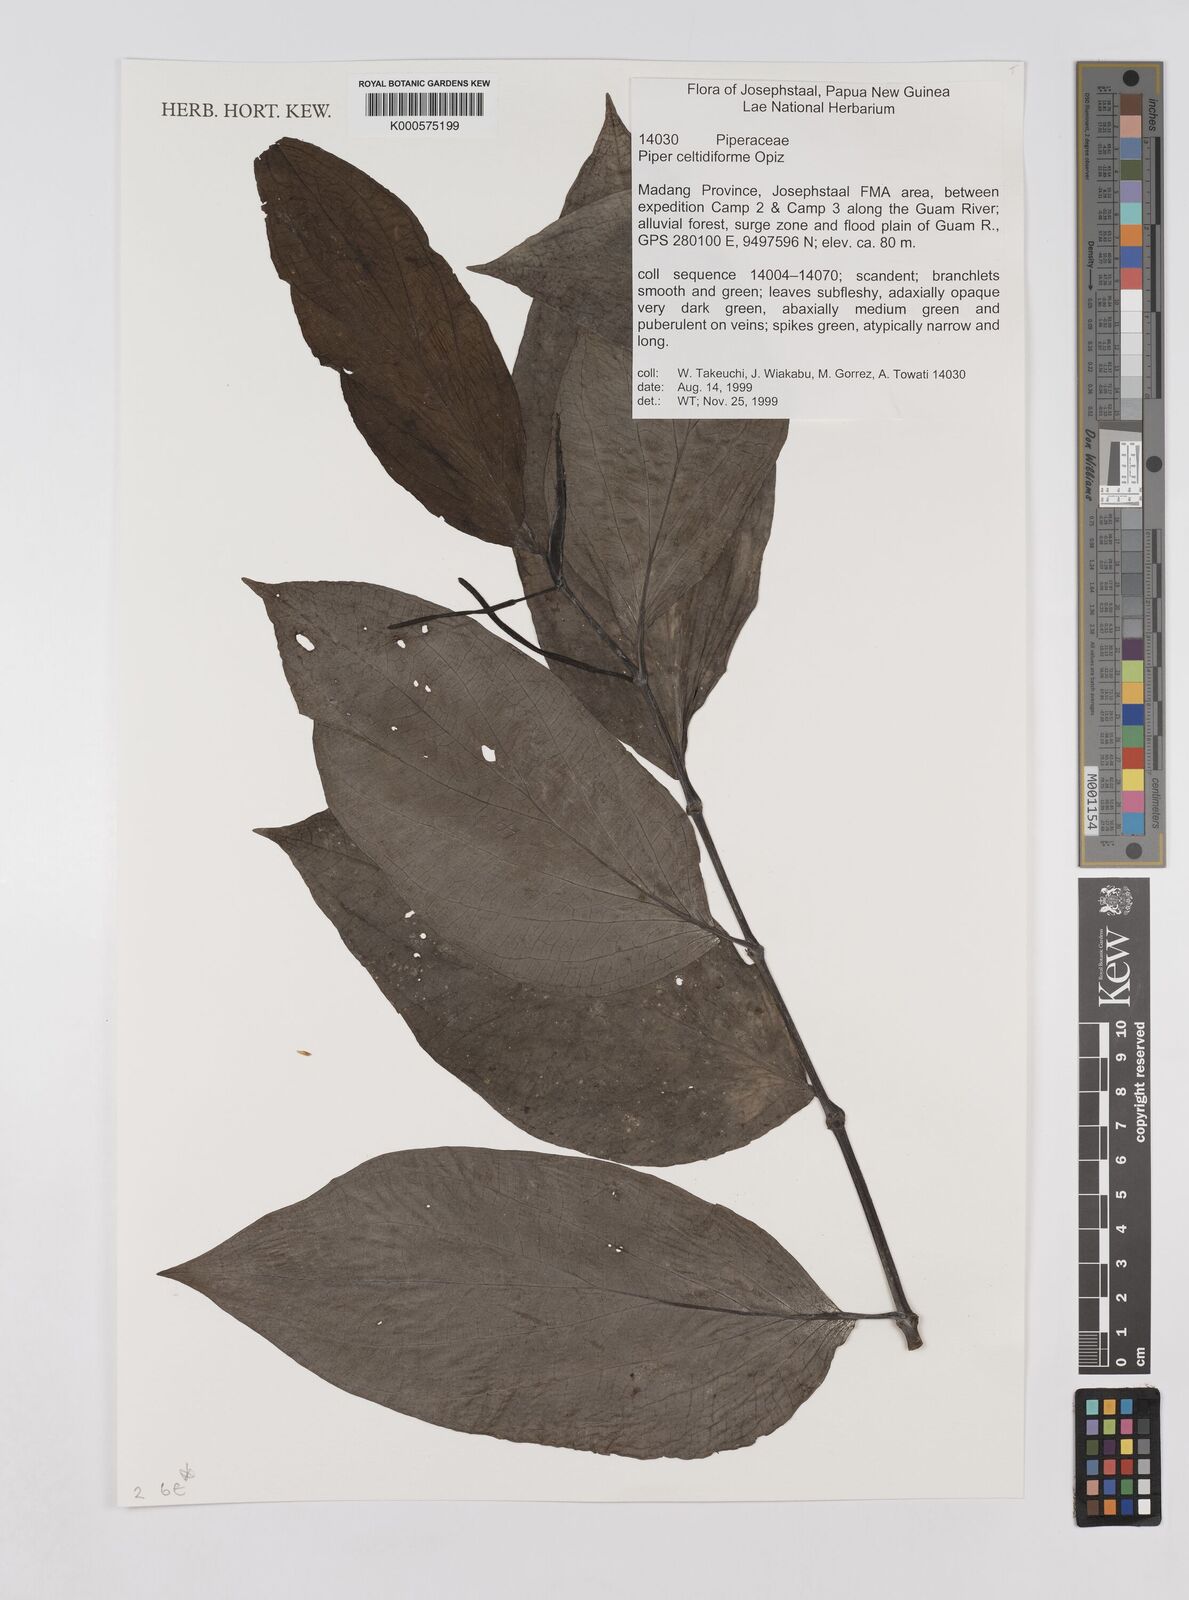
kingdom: Plantae
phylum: Tracheophyta
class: Magnoliopsida
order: Piperales
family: Piperaceae
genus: Piper
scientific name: Piper celtidiforme
